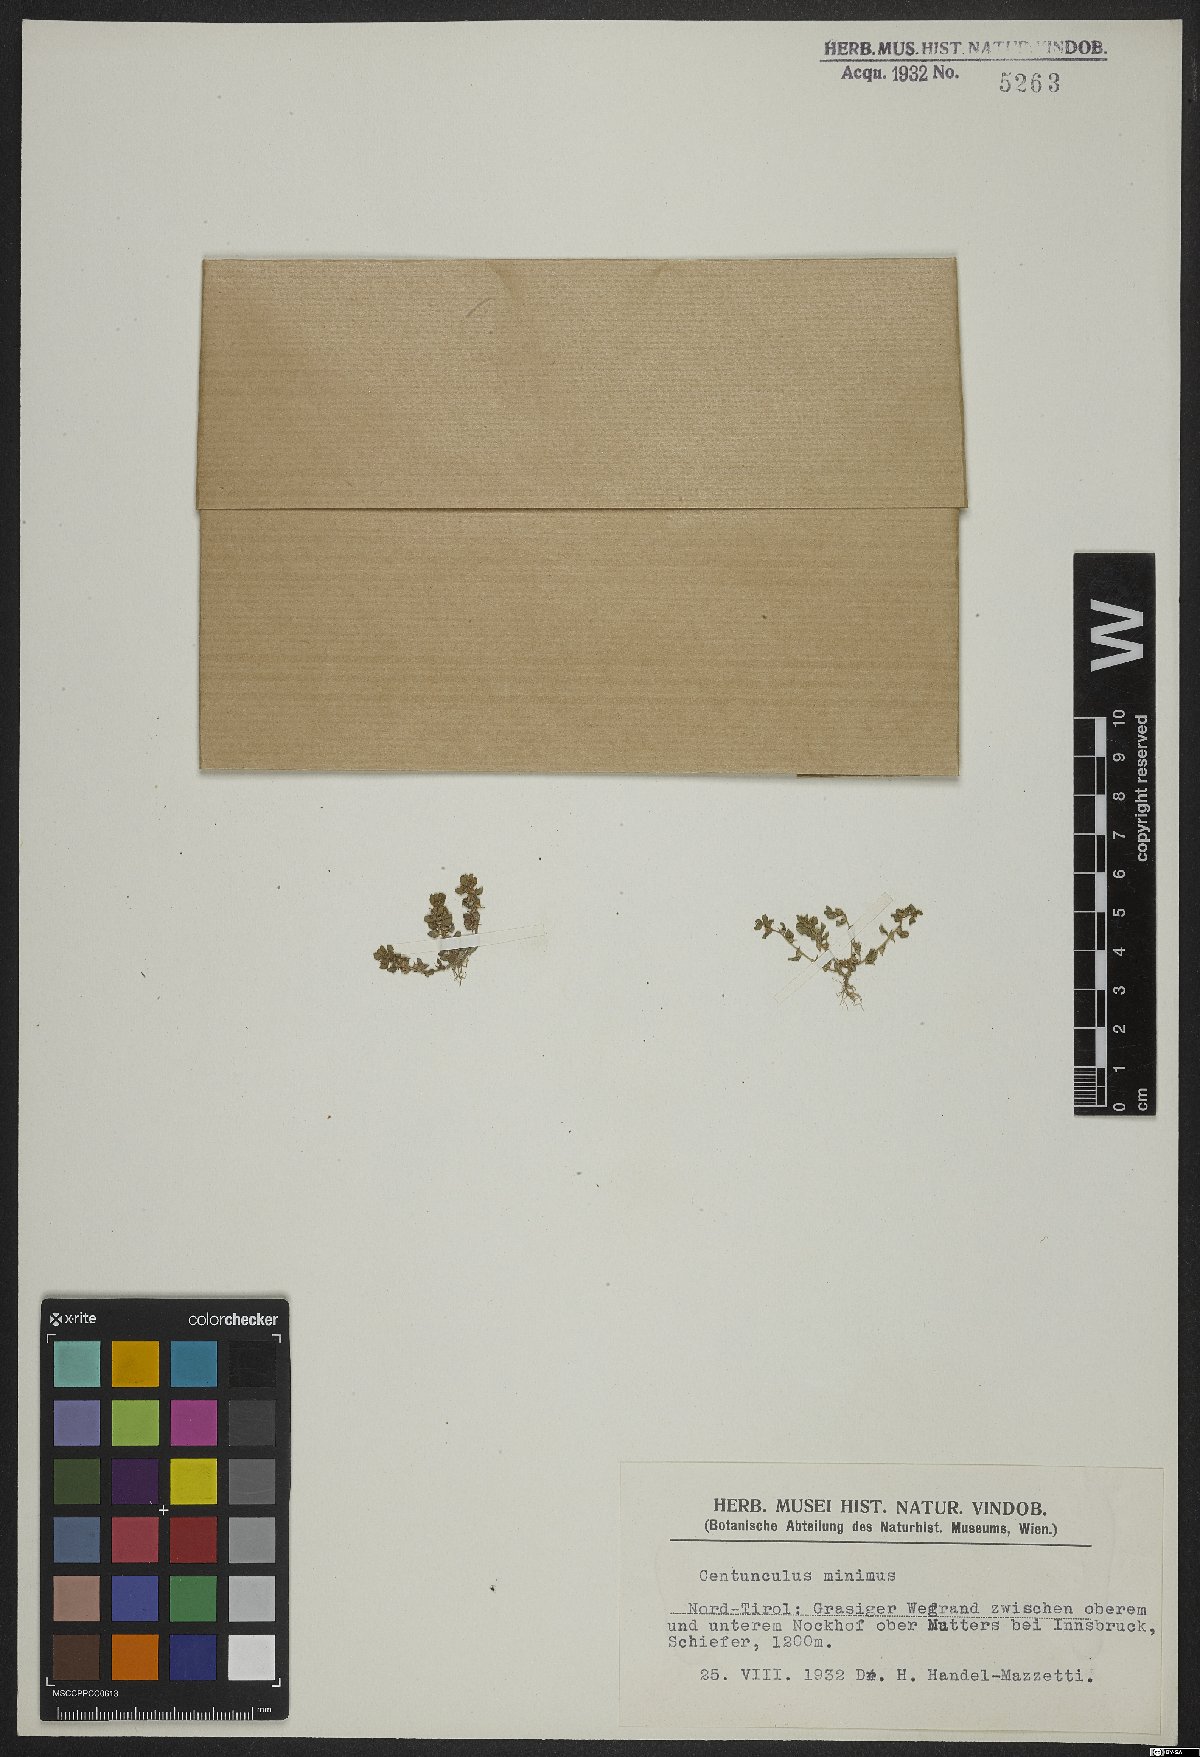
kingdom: Plantae
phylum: Tracheophyta
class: Magnoliopsida
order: Ericales
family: Primulaceae
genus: Lysimachia
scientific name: Lysimachia minima
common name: Chaffweed
